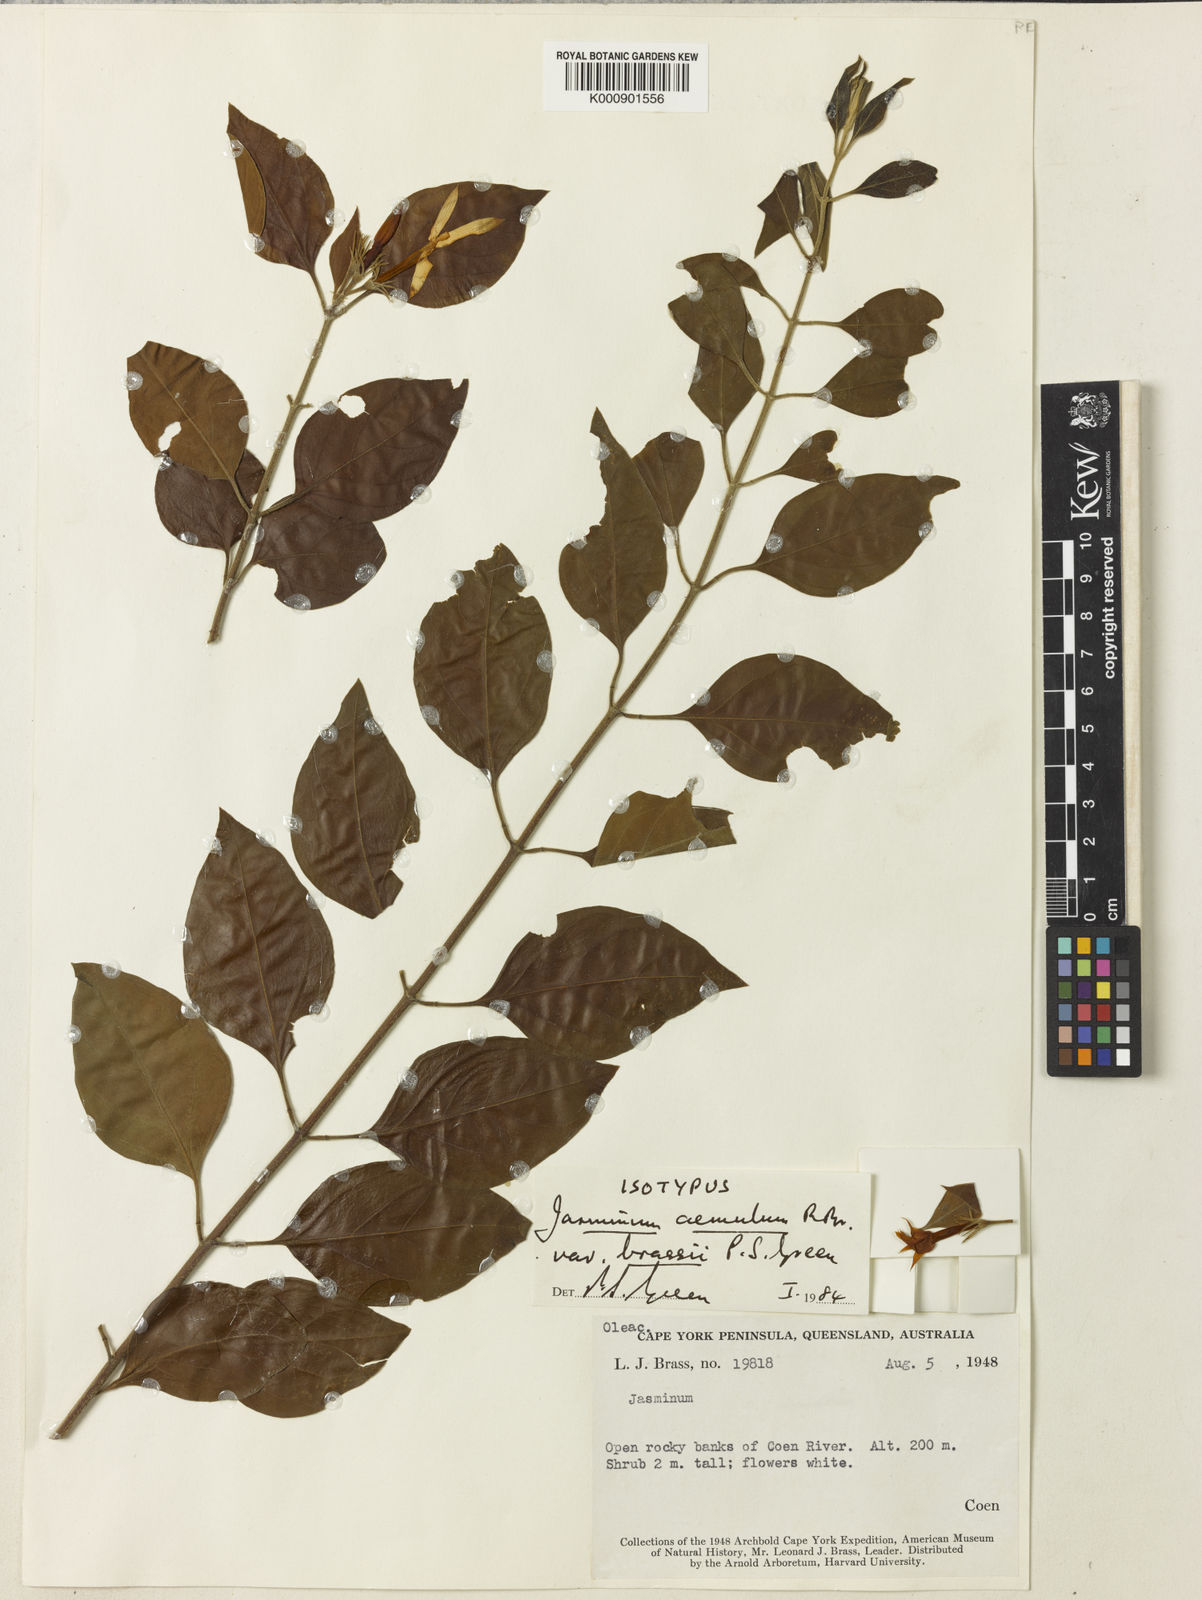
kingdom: Plantae
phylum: Tracheophyta
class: Magnoliopsida
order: Lamiales
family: Oleaceae
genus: Jasminum
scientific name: Jasminum elongatum
